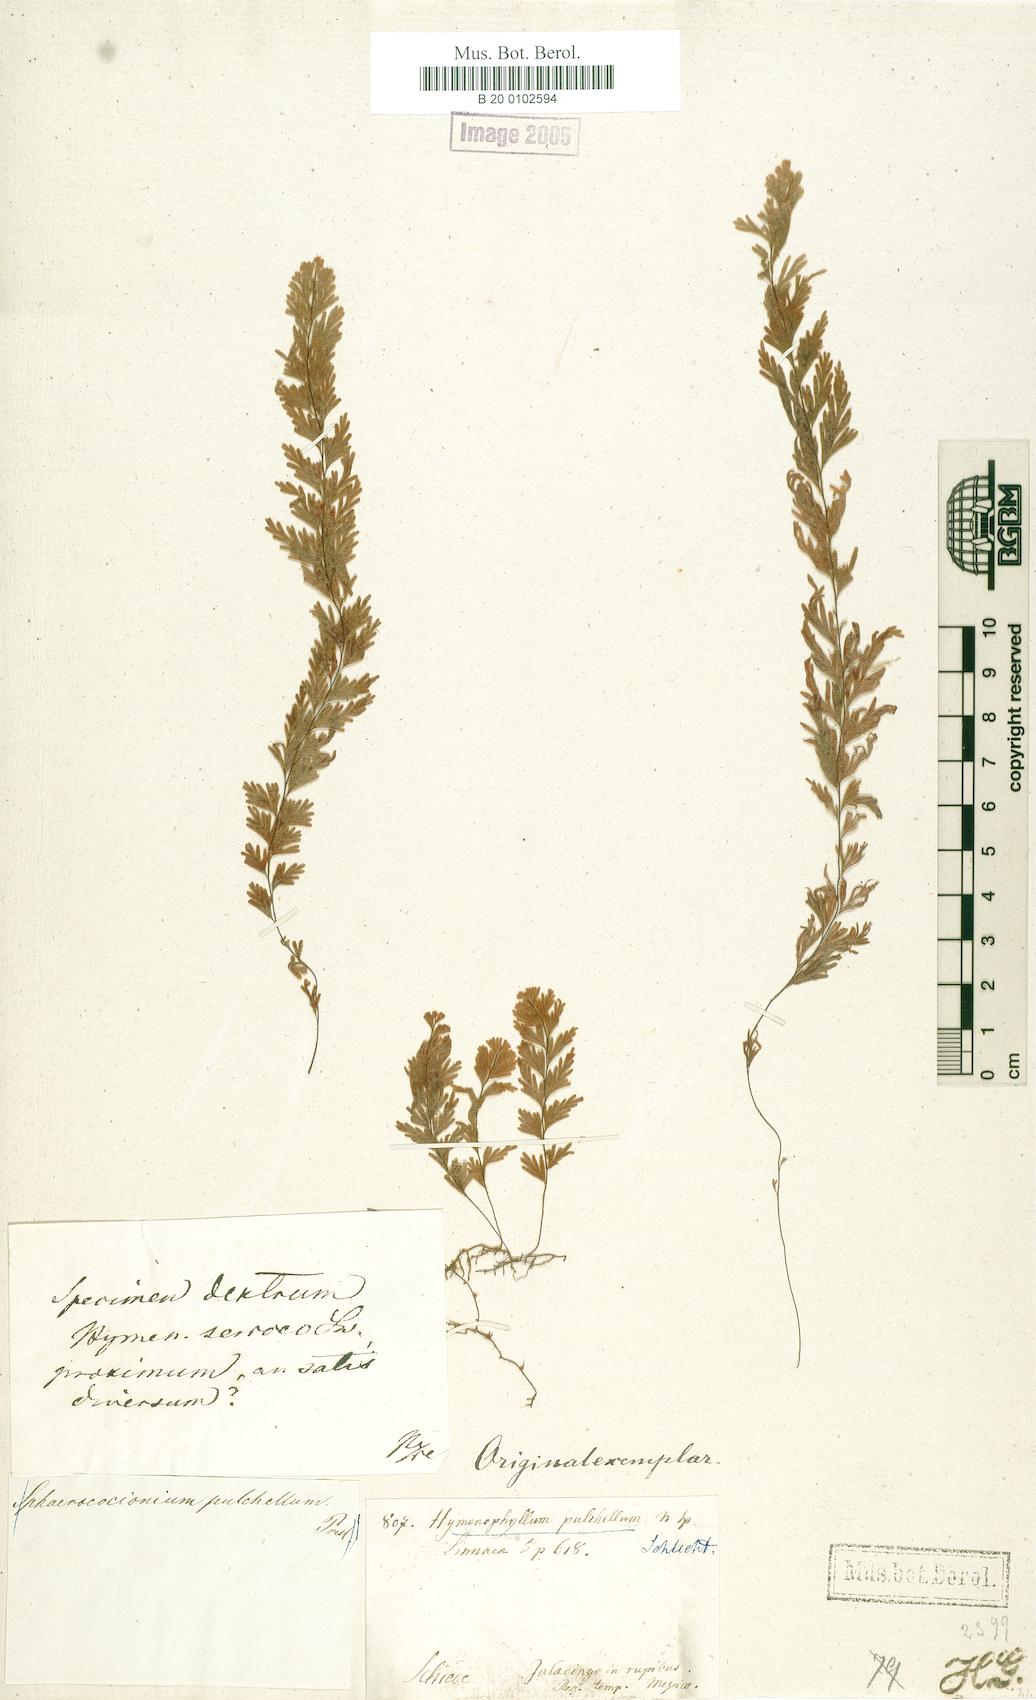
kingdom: Plantae
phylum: Tracheophyta
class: Polypodiopsida
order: Hymenophyllales
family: Hymenophyllaceae
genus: Hymenophyllum
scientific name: Hymenophyllum pulchellum
